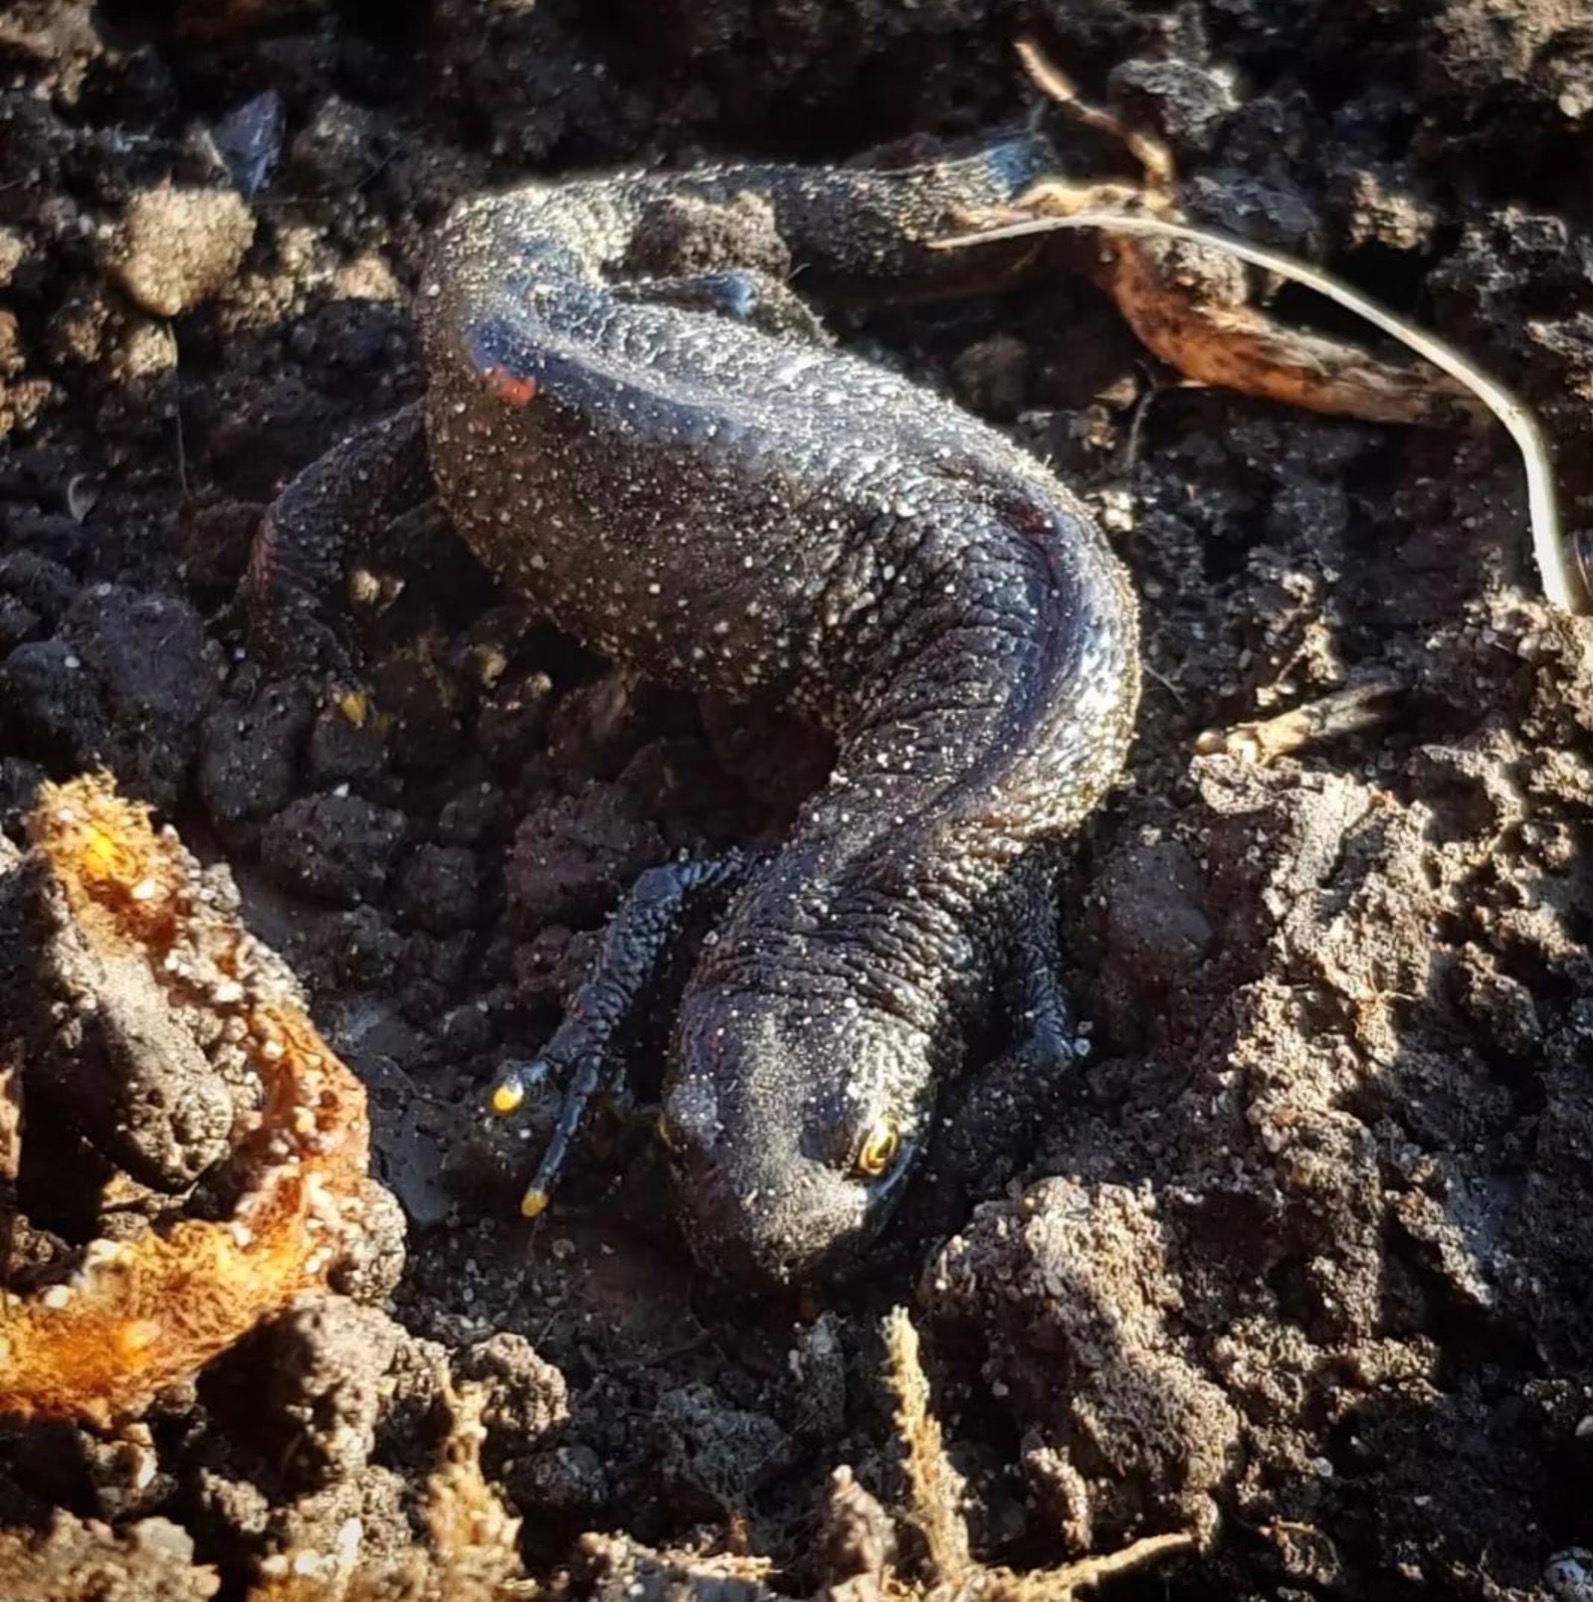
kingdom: Animalia
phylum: Chordata
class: Amphibia
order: Caudata
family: Salamandridae
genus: Triturus
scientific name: Triturus cristatus
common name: Stor vandsalamander
